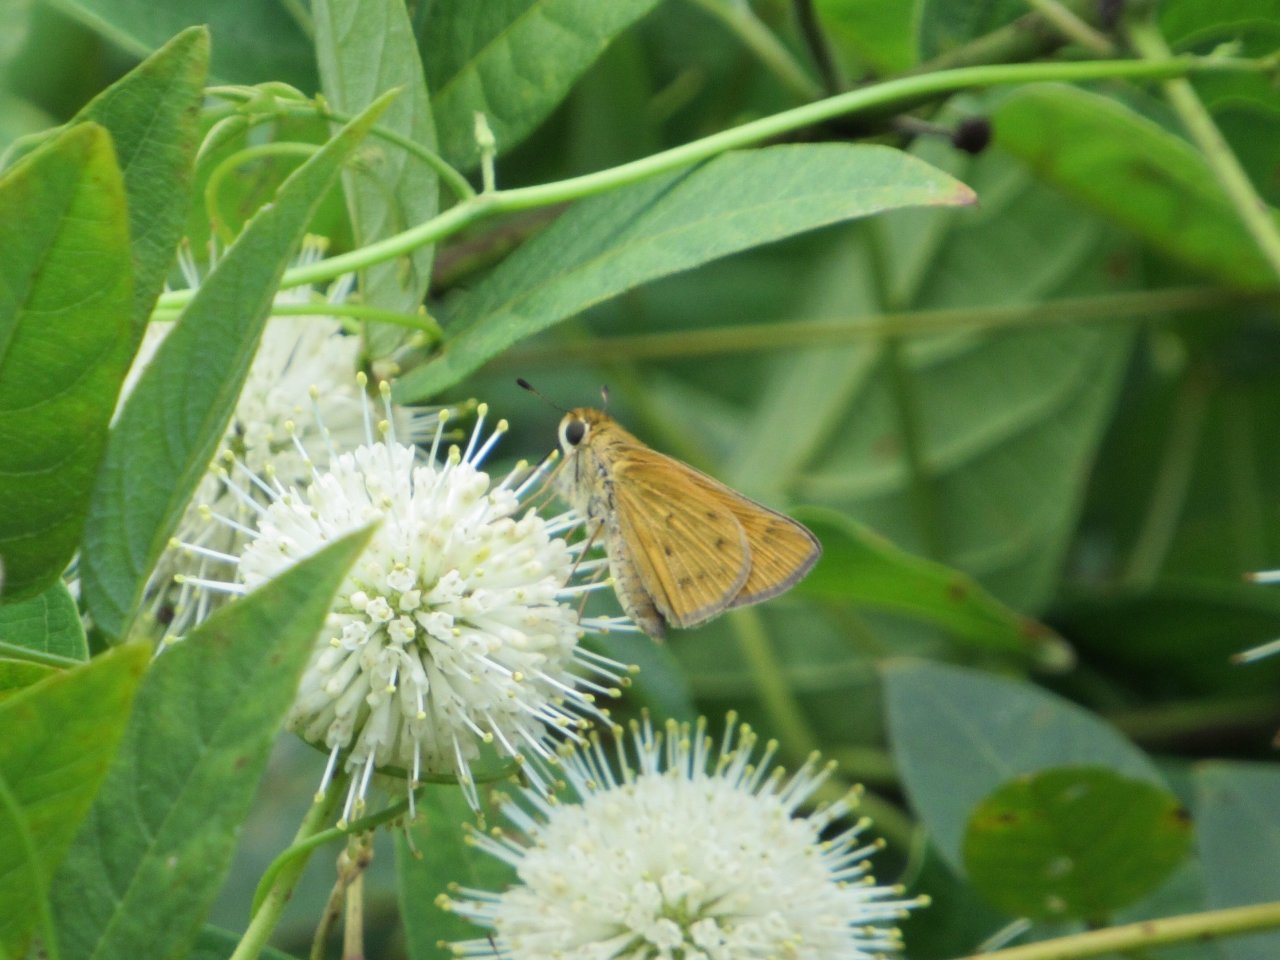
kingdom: Animalia
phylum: Arthropoda
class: Insecta
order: Lepidoptera
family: Hesperiidae
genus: Hylephila
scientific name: Hylephila phyleus
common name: Fiery Skipper
